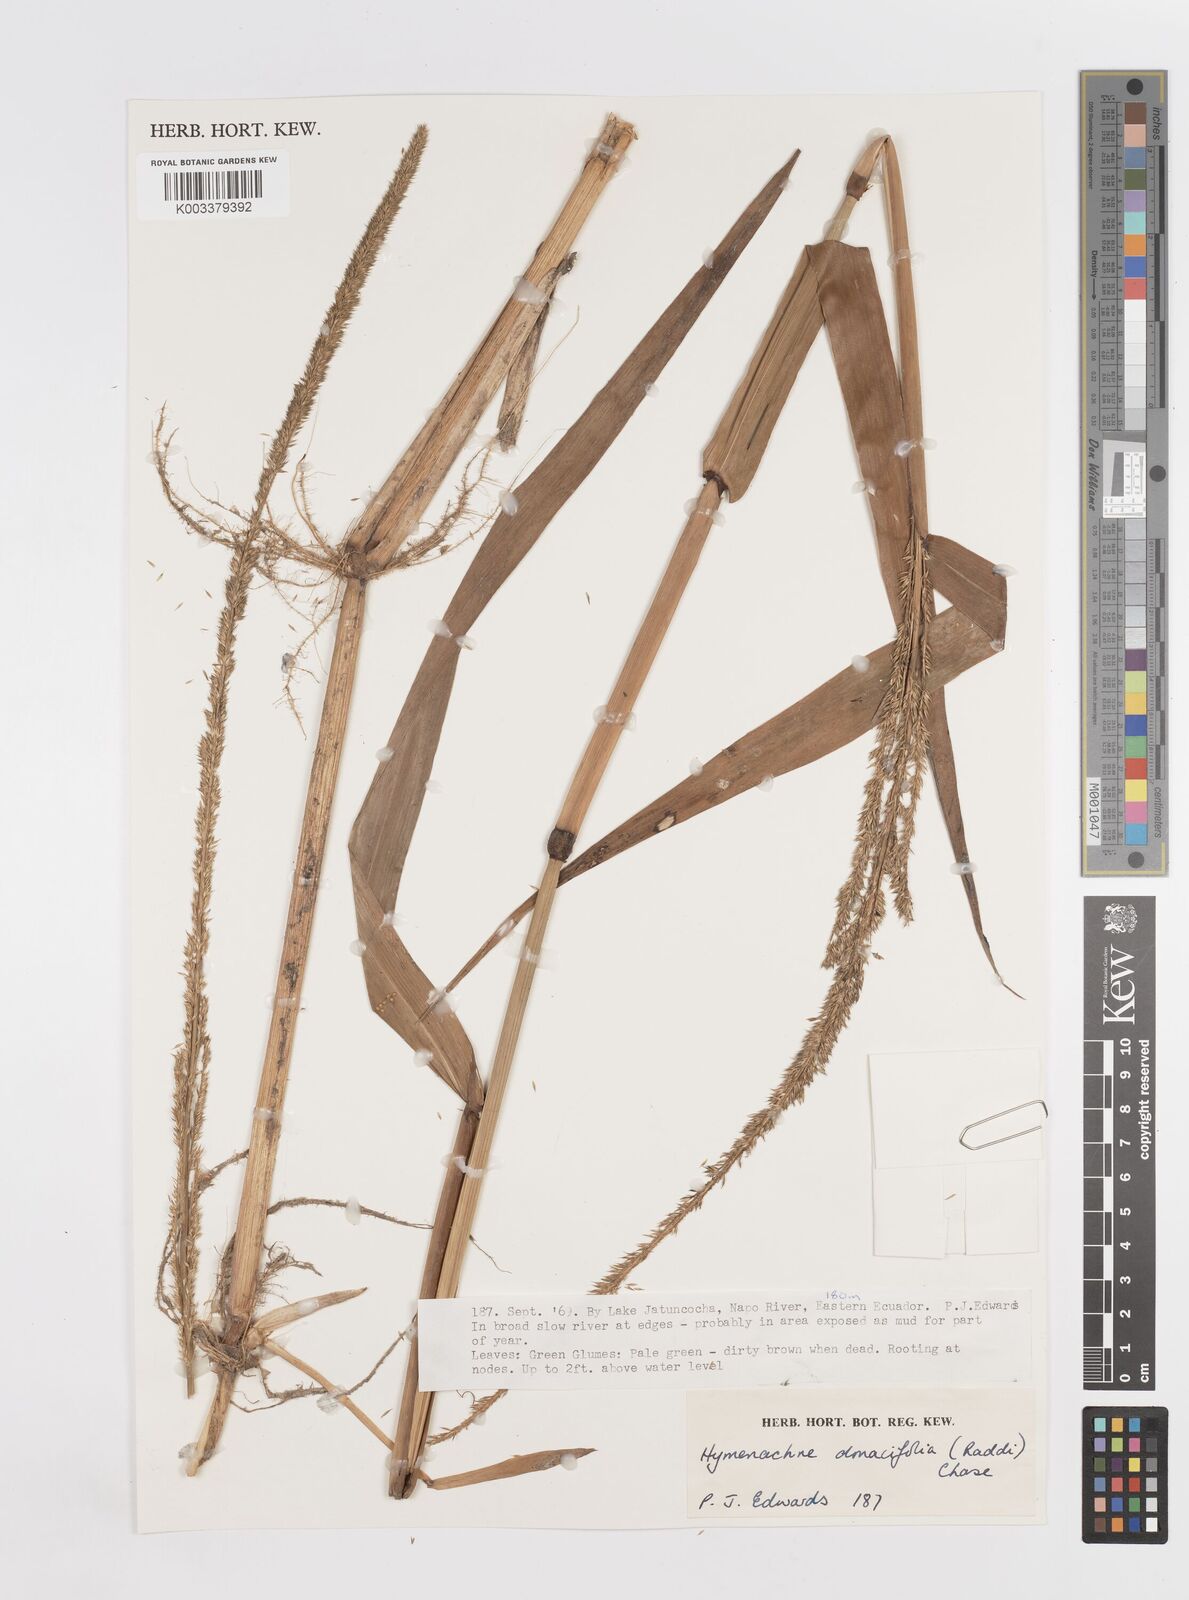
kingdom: Plantae
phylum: Tracheophyta
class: Liliopsida
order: Poales
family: Poaceae
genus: Hymenachne
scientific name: Hymenachne donacifolia
